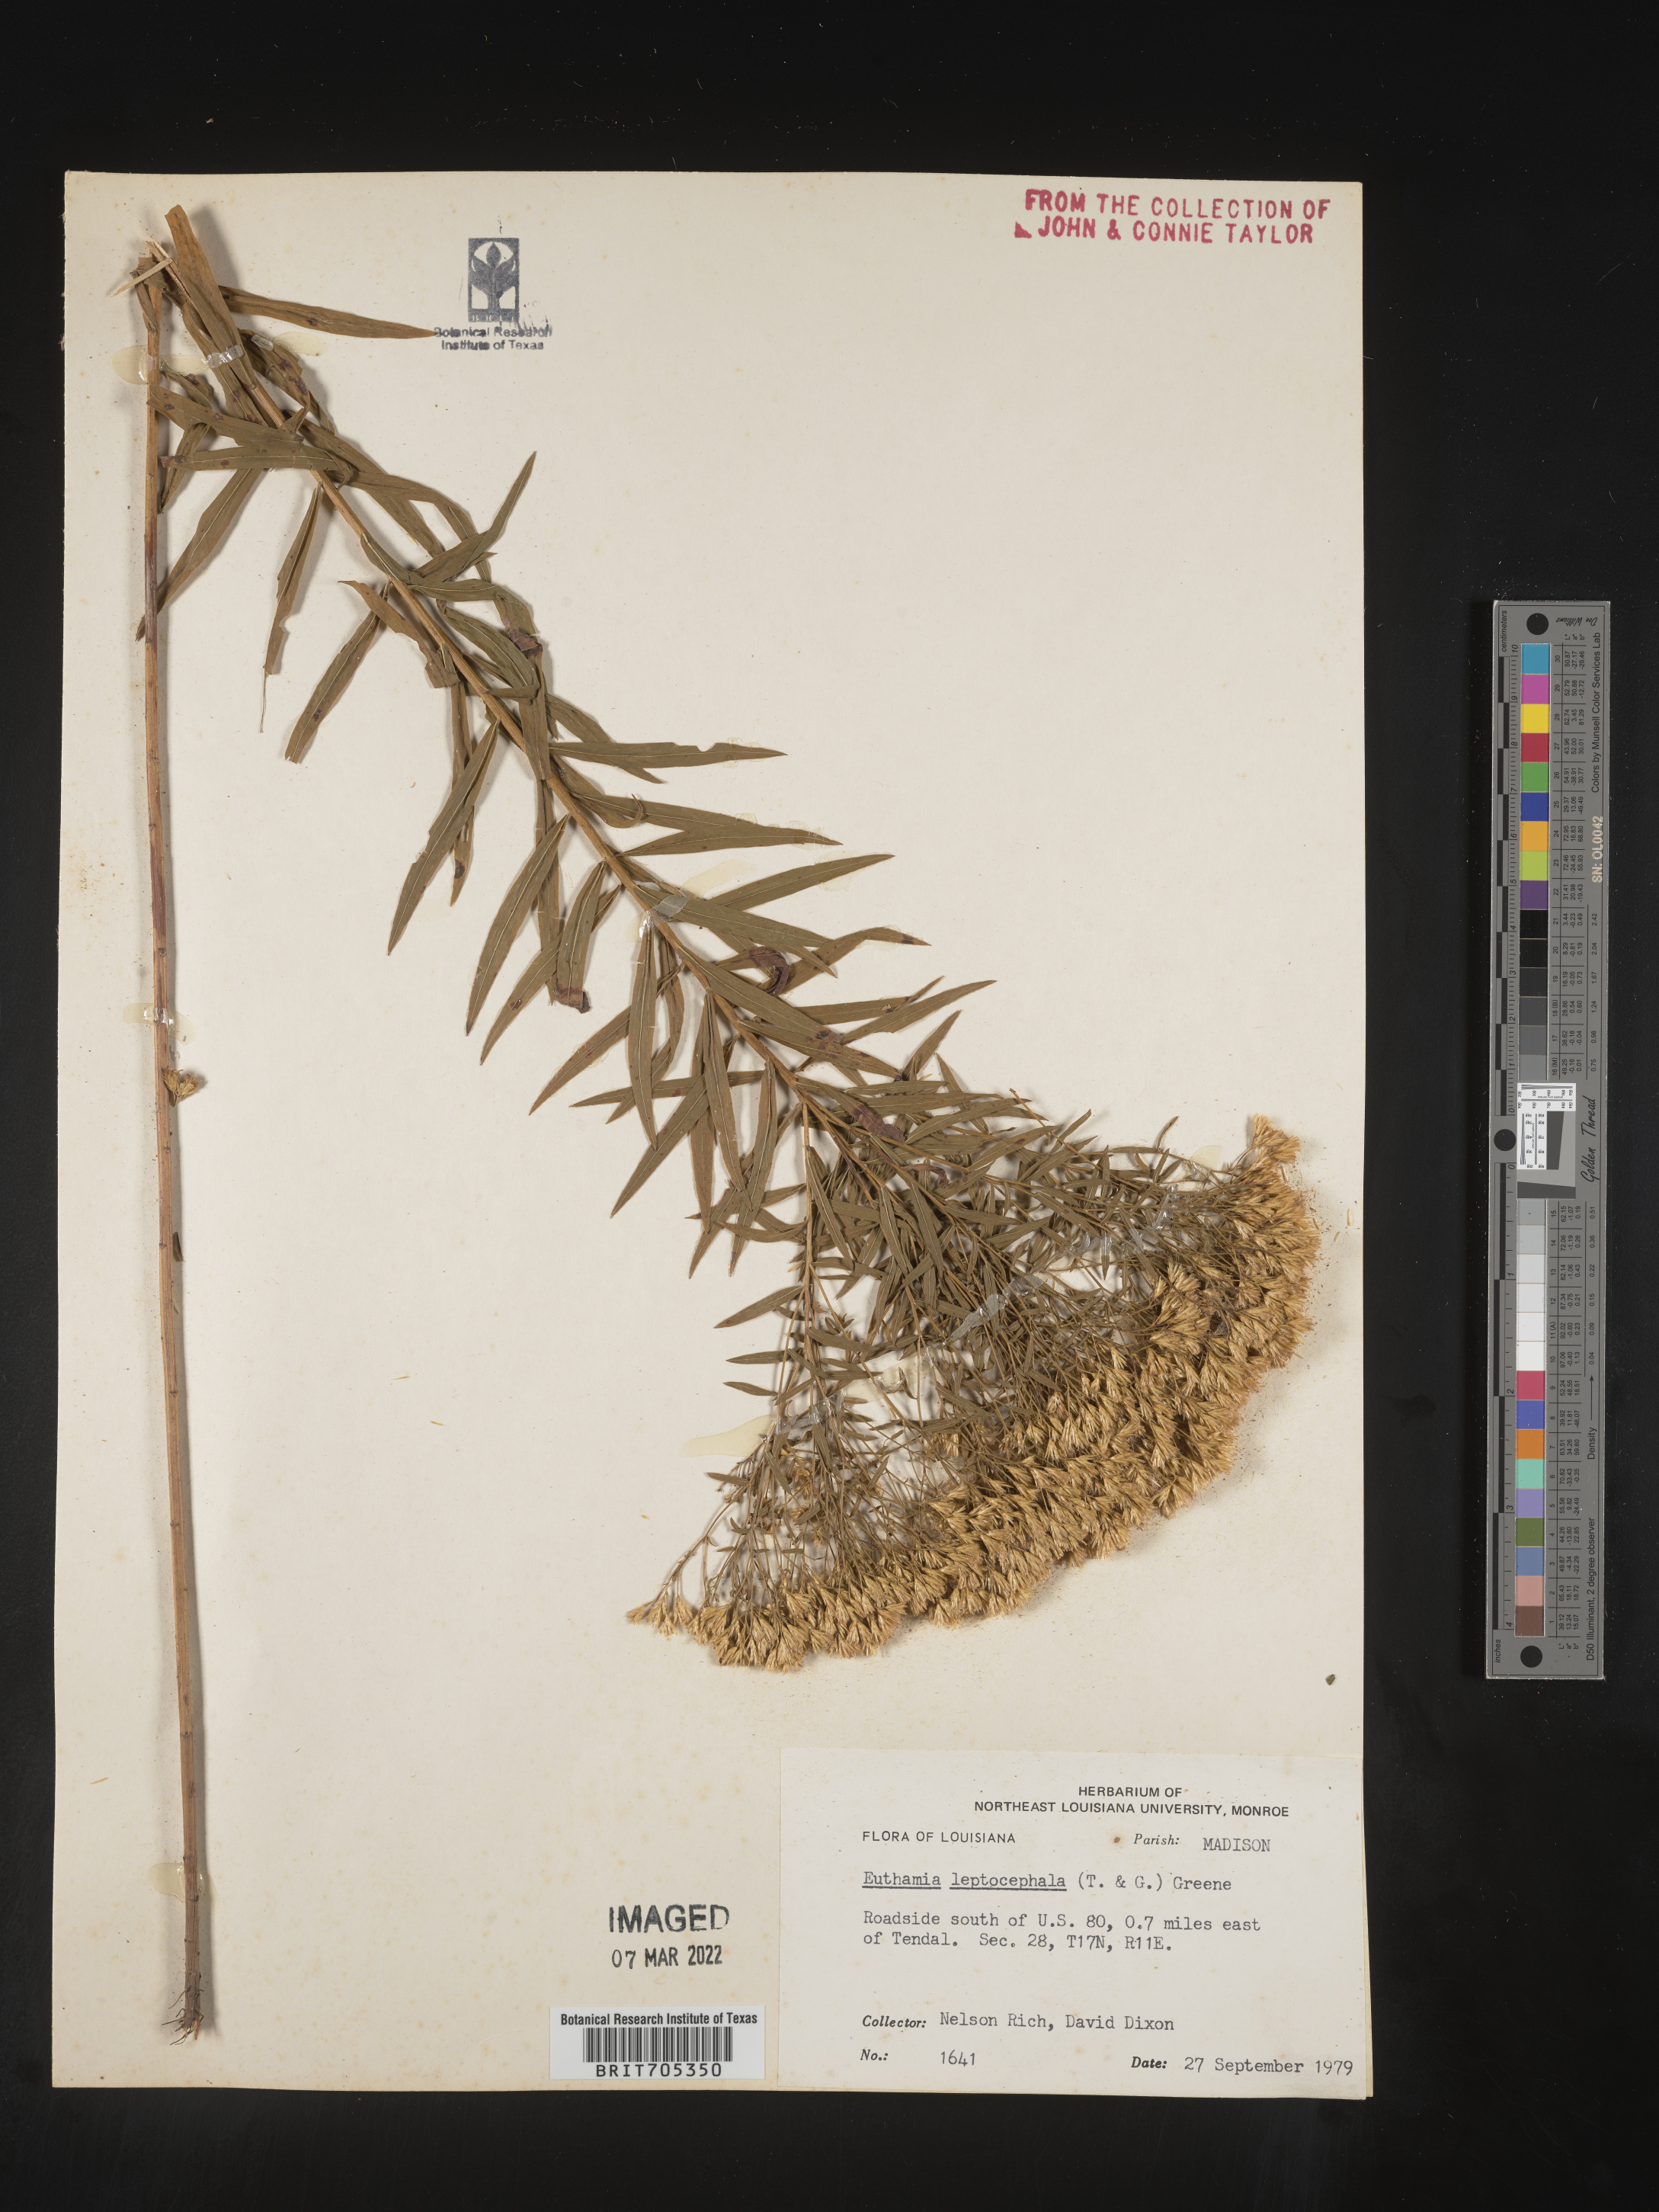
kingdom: Plantae
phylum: Tracheophyta
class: Magnoliopsida
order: Asterales
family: Asteraceae
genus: Euthamia
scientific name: Euthamia leptocephala
